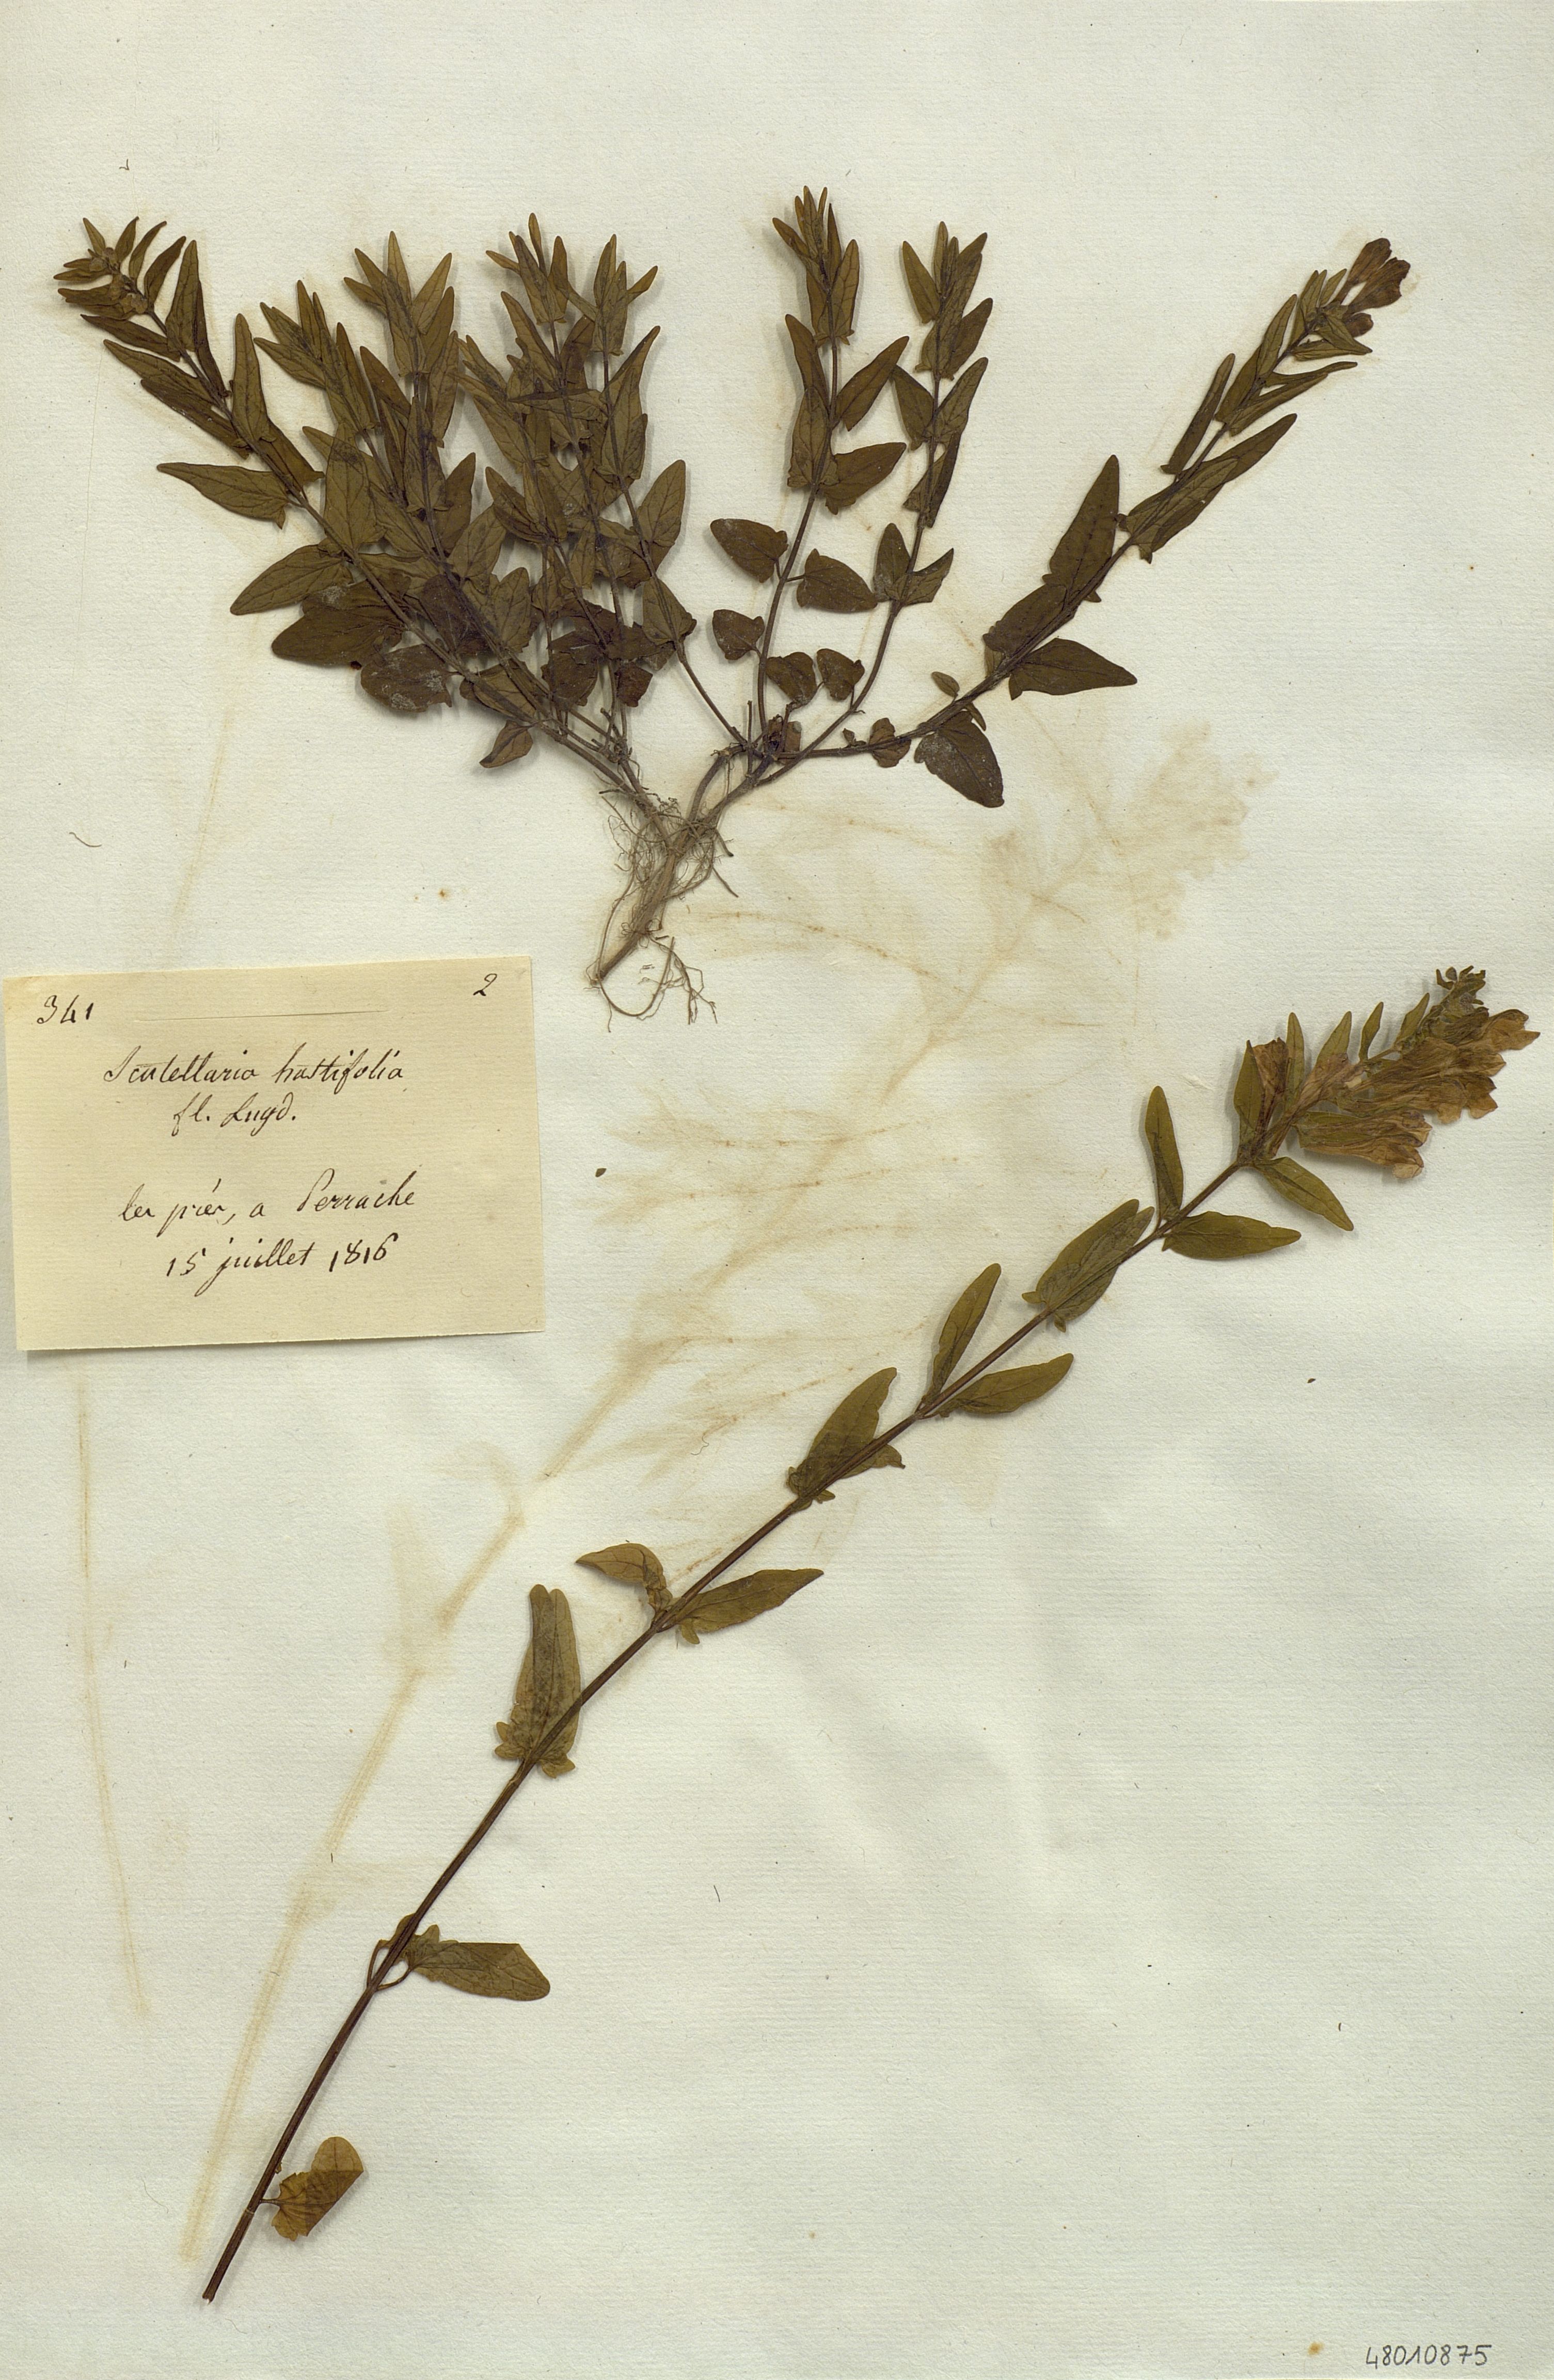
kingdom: Plantae
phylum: Tracheophyta
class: Magnoliopsida
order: Lamiales
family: Lamiaceae
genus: Scutellaria
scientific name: Scutellaria hastifolia
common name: Norfolk skullcap
